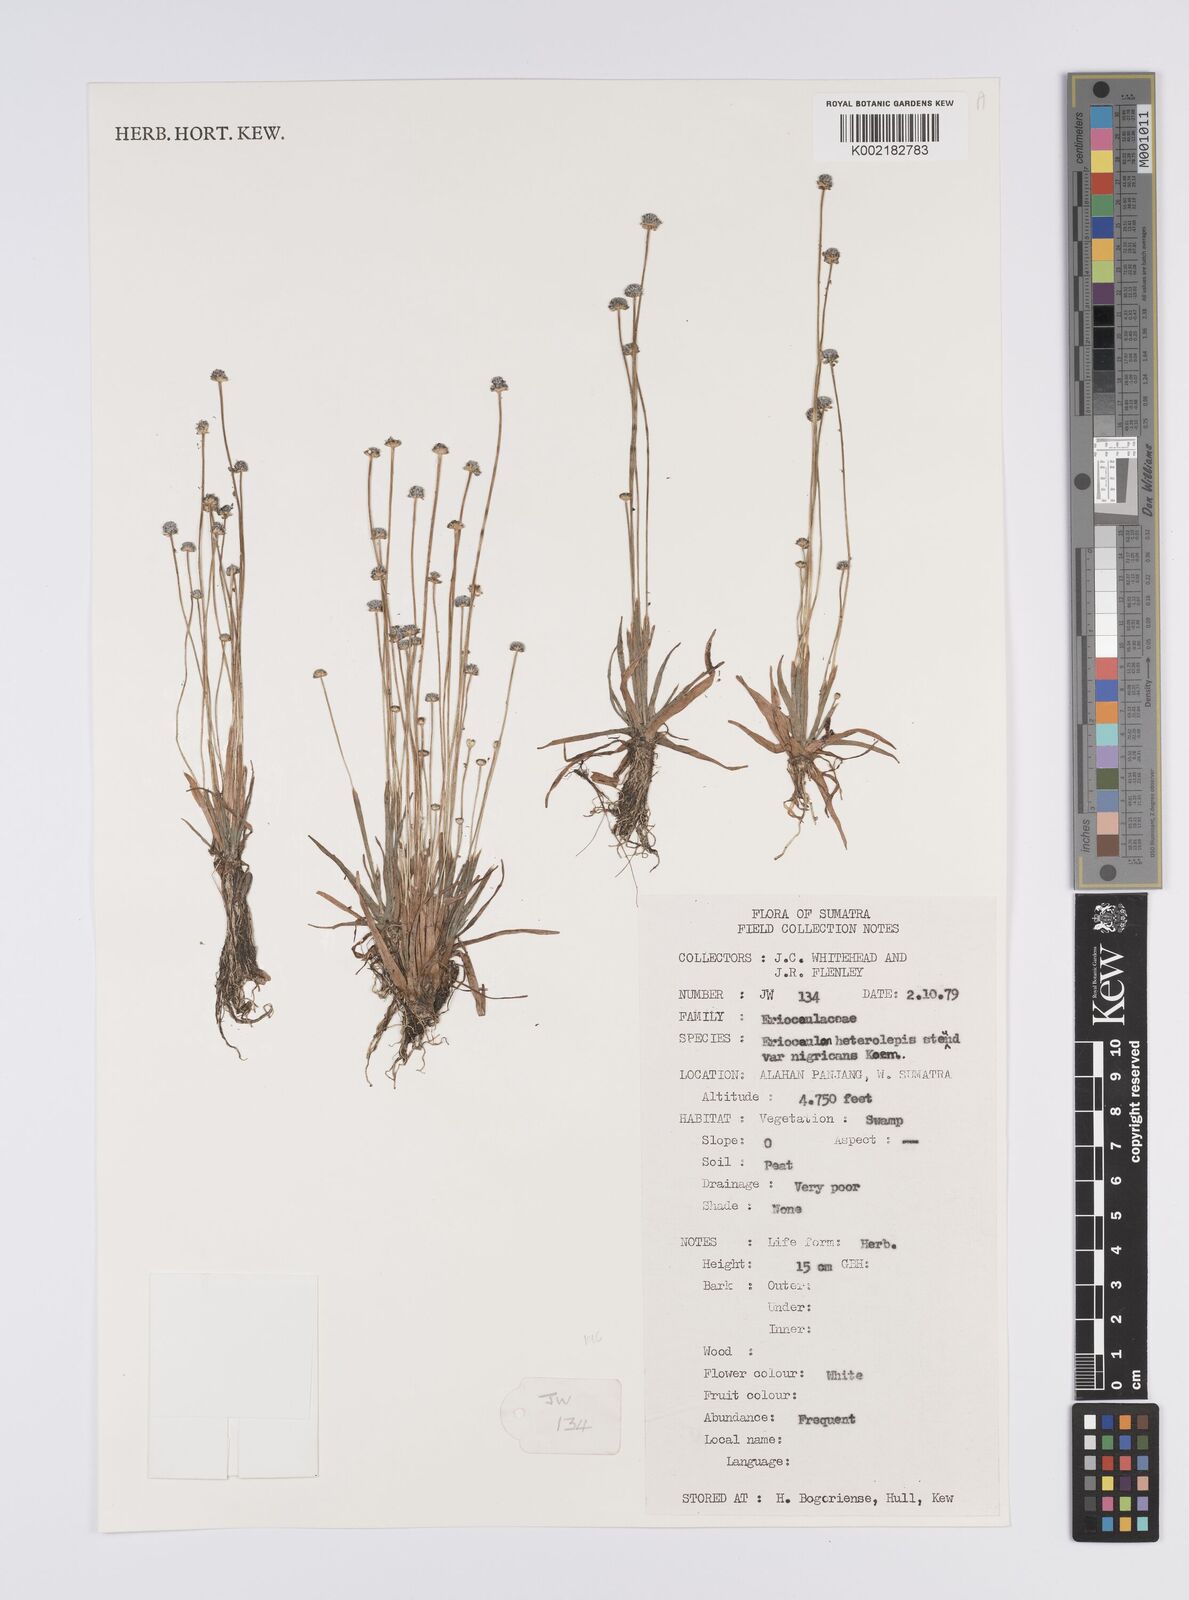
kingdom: Plantae
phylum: Tracheophyta
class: Liliopsida
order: Poales
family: Eriocaulaceae
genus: Eriocaulon
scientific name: Eriocaulon heterolepis
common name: Buttonhead pipewort
